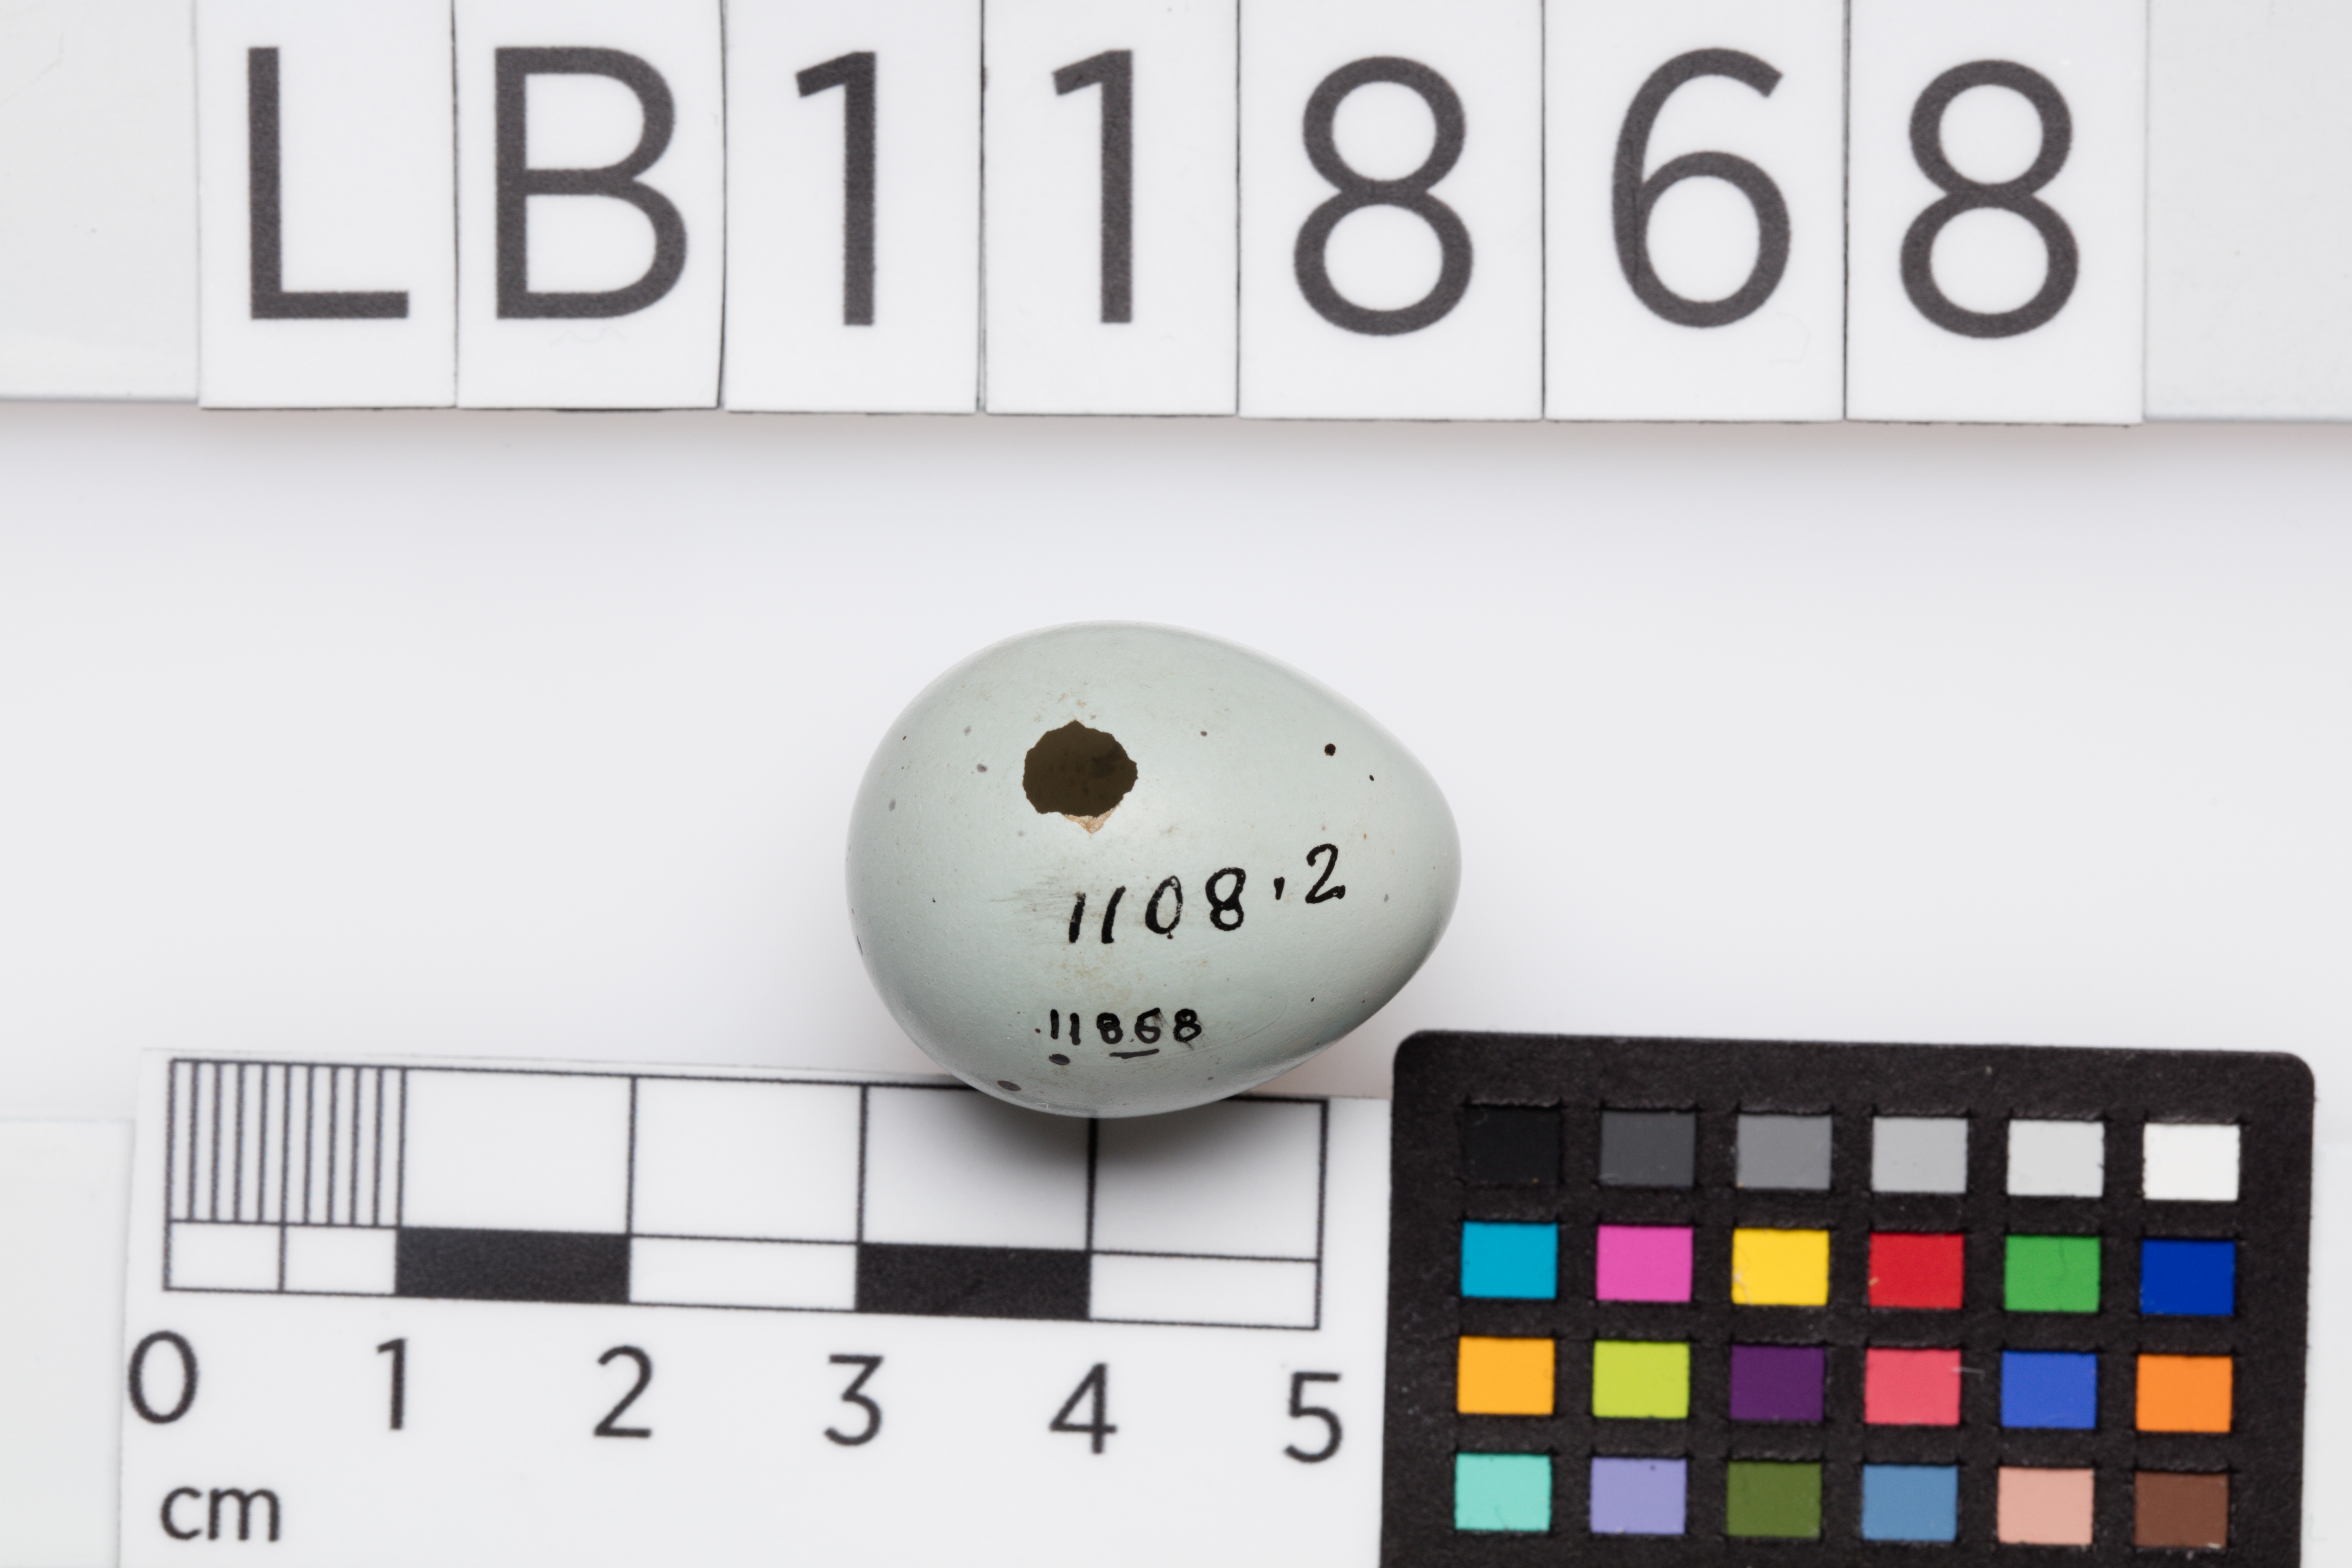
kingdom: Animalia
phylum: Chordata
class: Aves
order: Passeriformes
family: Turdidae
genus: Turdus
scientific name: Turdus philomelos
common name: Song thrush
